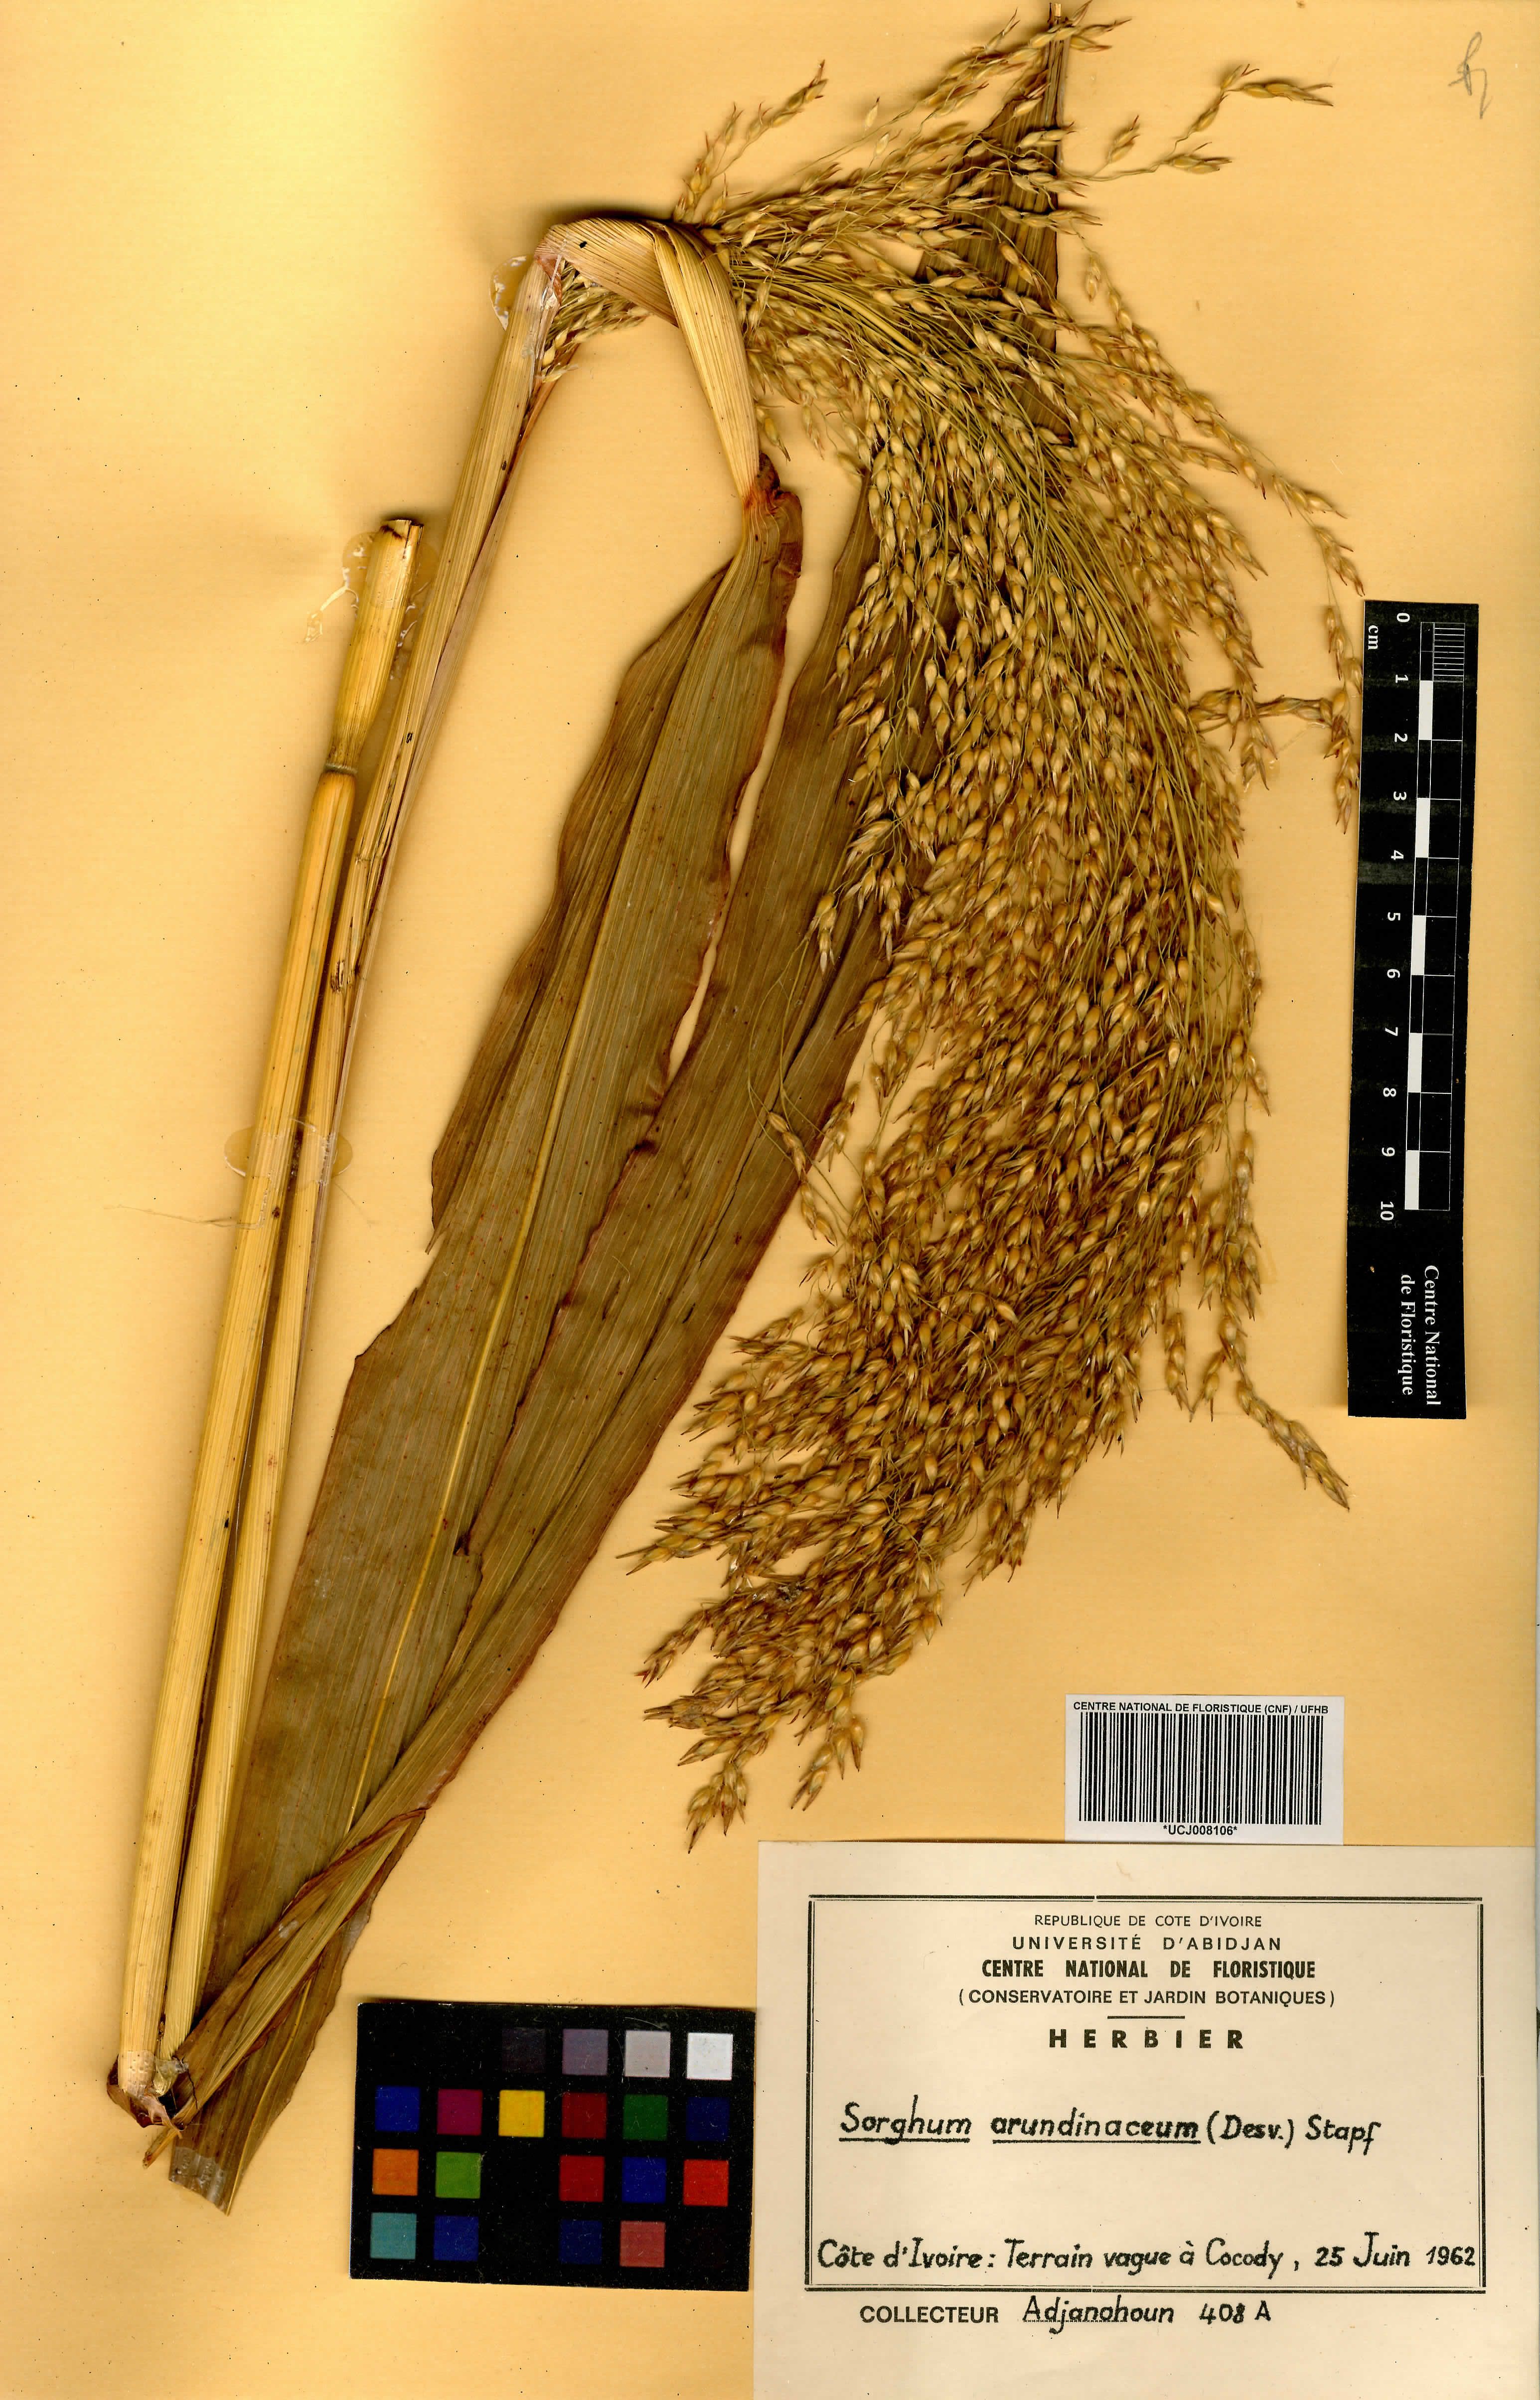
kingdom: Plantae
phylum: Tracheophyta
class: Liliopsida
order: Poales
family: Poaceae
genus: Sorghum
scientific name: Sorghum arundinaceum
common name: Sorghum
